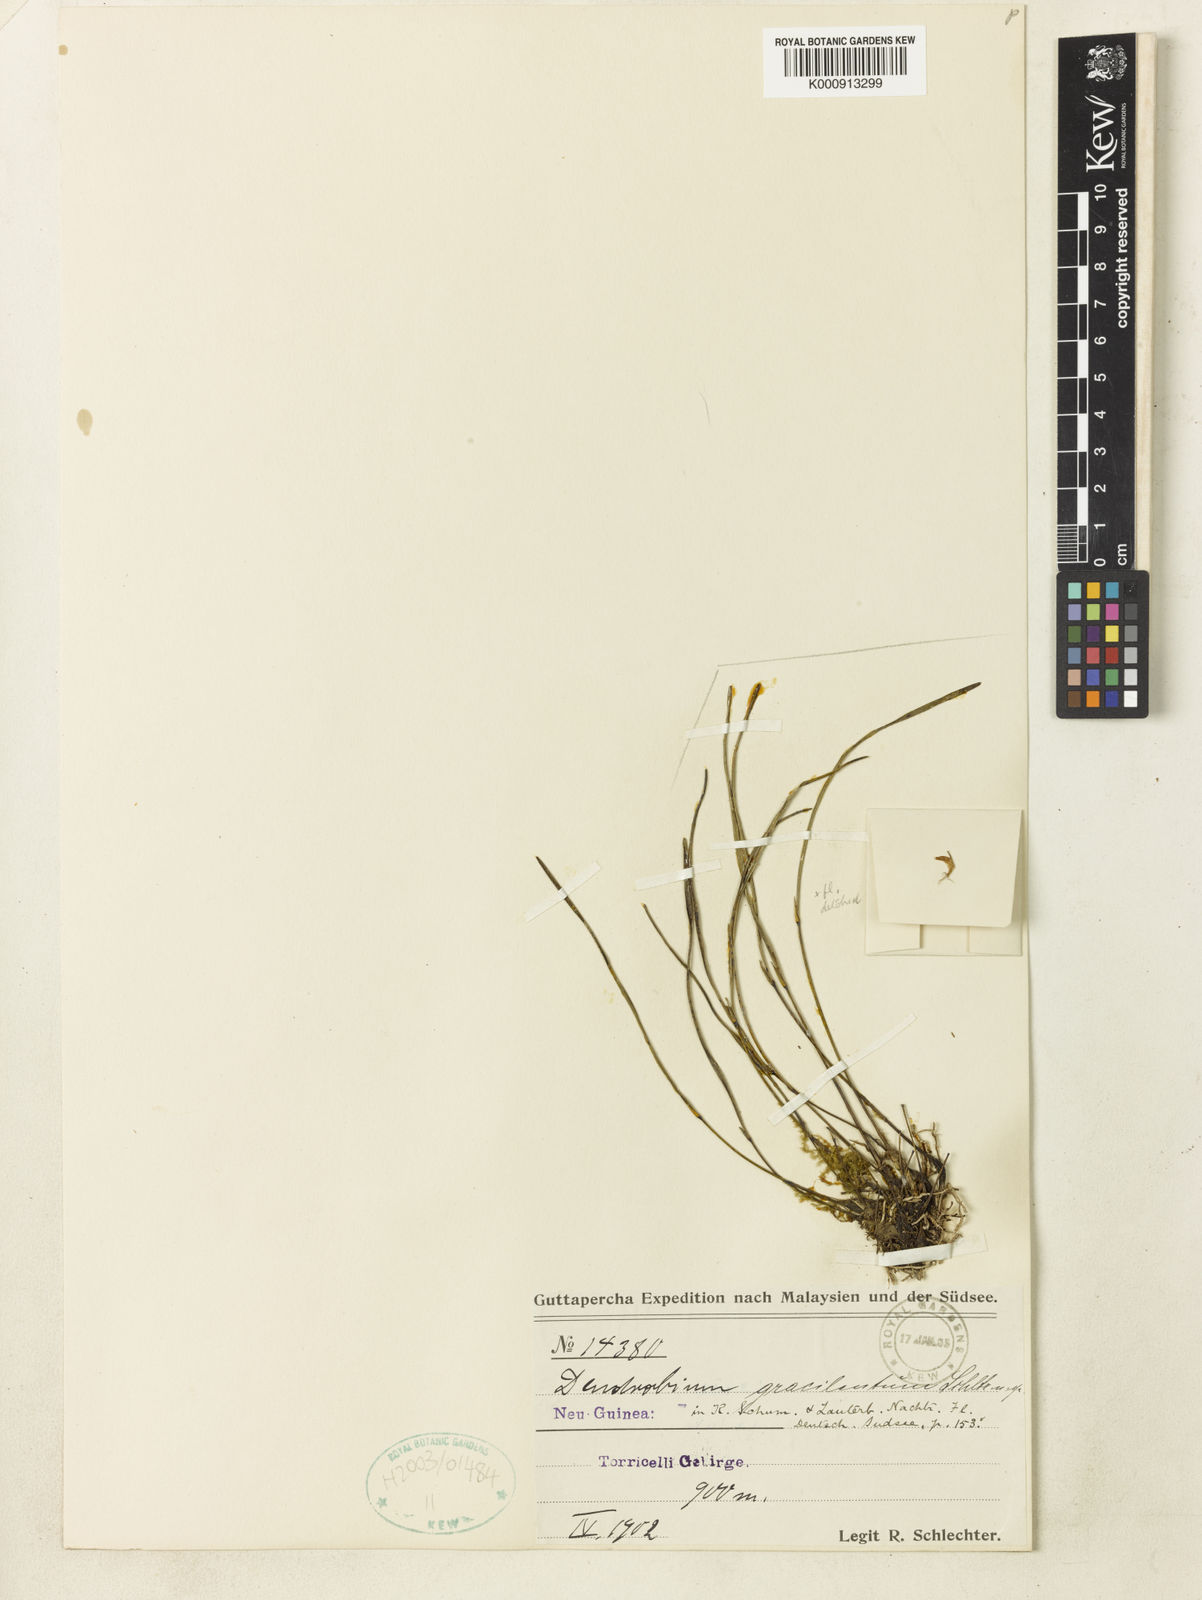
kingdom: Plantae
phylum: Tracheophyta
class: Liliopsida
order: Asparagales
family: Orchidaceae
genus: Dendrobium
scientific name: Dendrobium gracilentum
